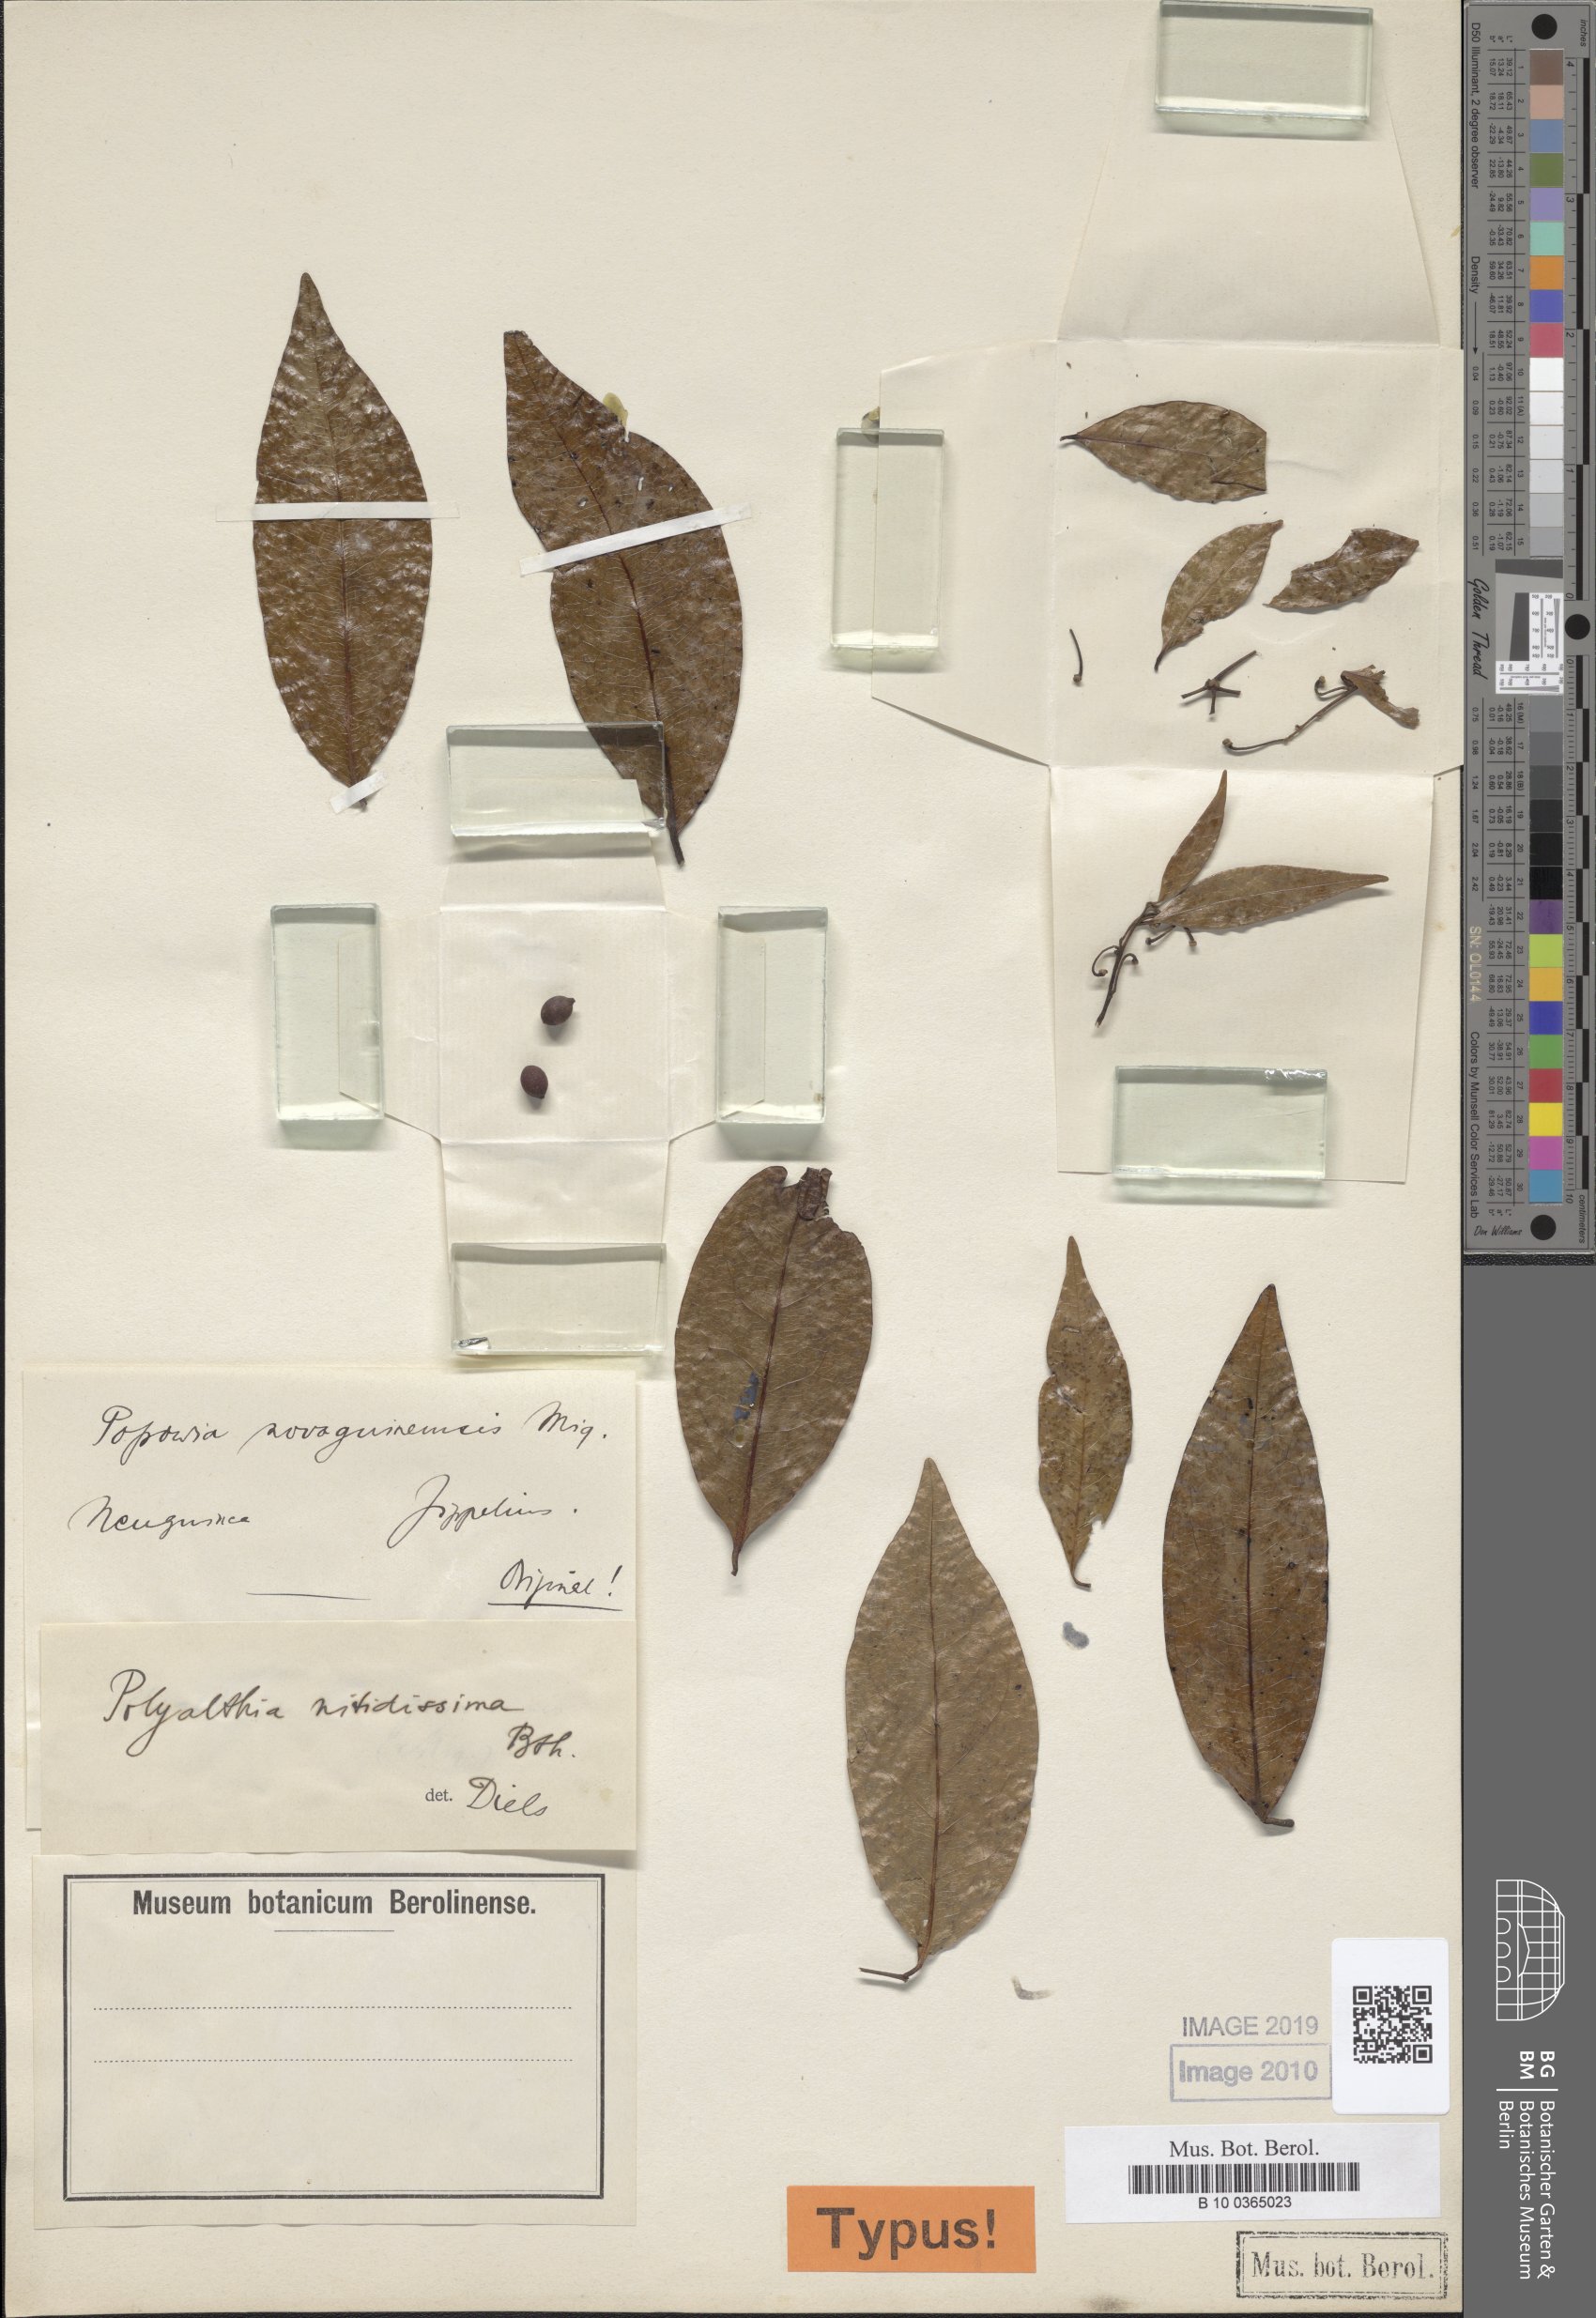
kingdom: Plantae
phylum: Tracheophyta
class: Magnoliopsida
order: Magnoliales
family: Annonaceae
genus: Hubera
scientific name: Hubera nitidissima
